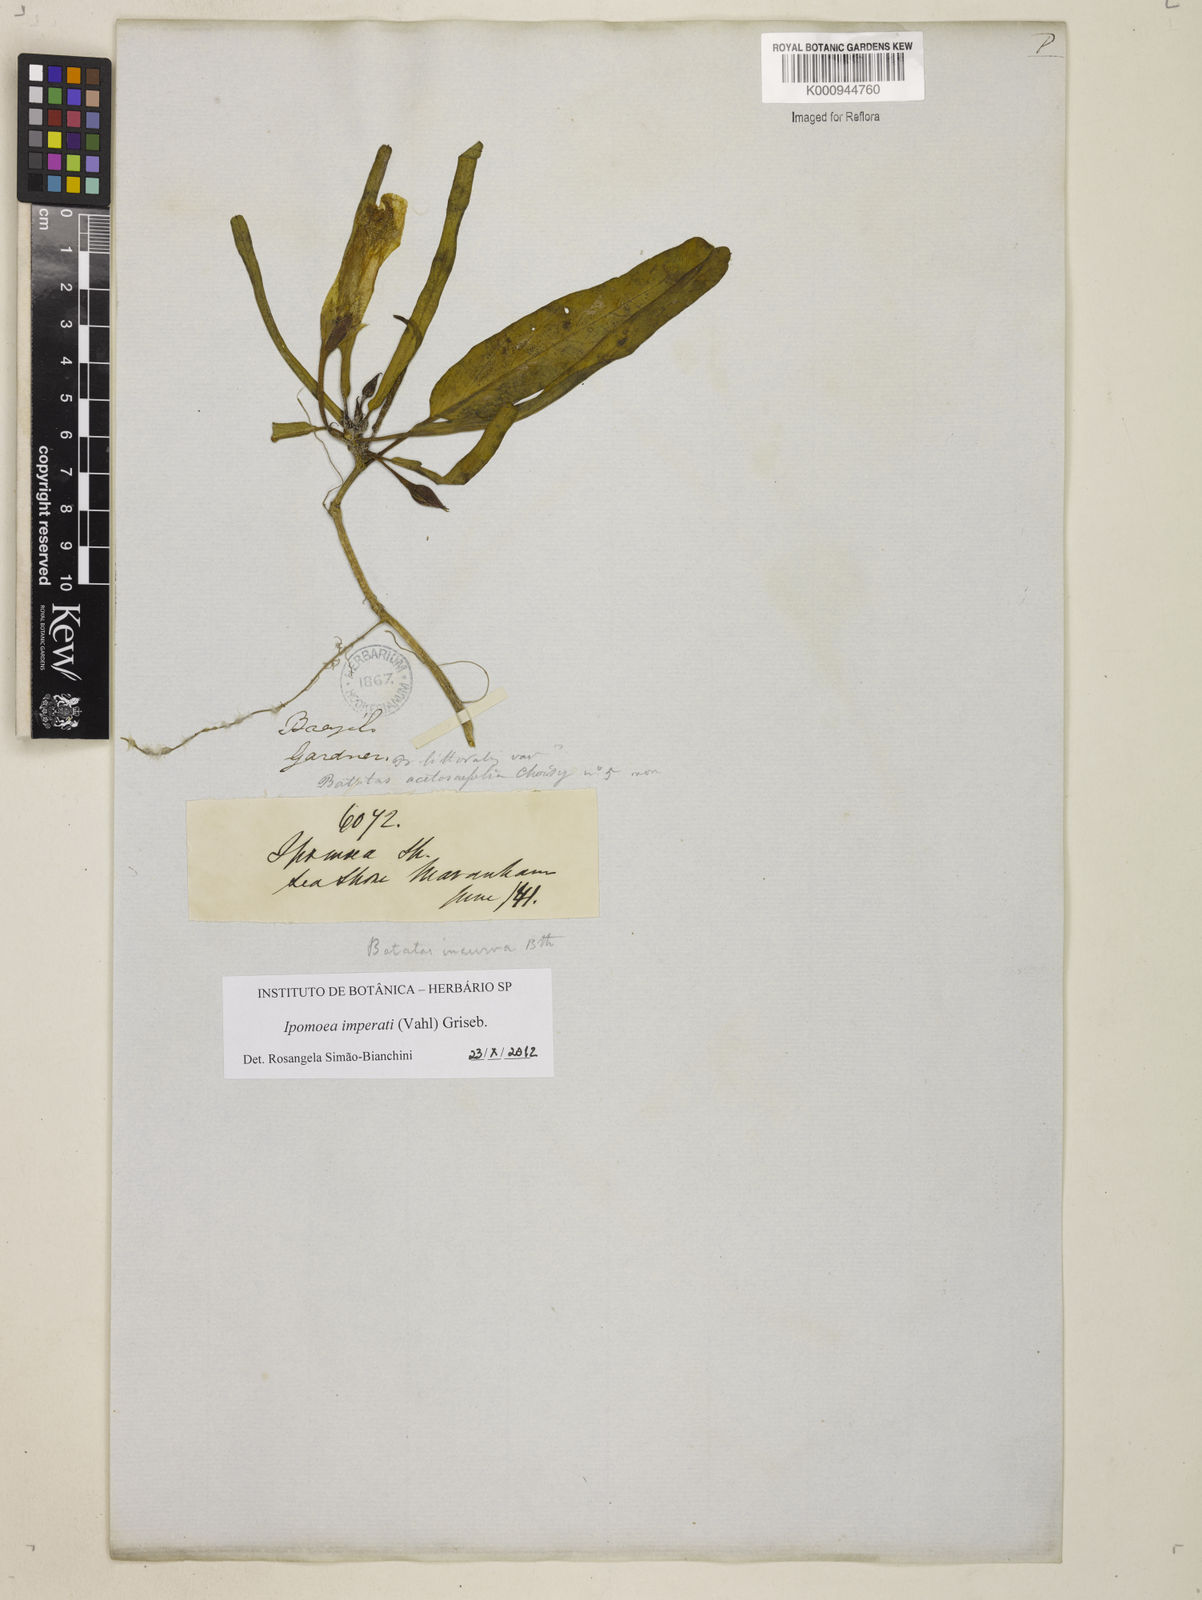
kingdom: Plantae
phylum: Tracheophyta
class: Magnoliopsida
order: Solanales
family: Convolvulaceae
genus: Ipomoea
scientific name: Ipomoea asarifolia
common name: Ginger-leaf morning-glory
